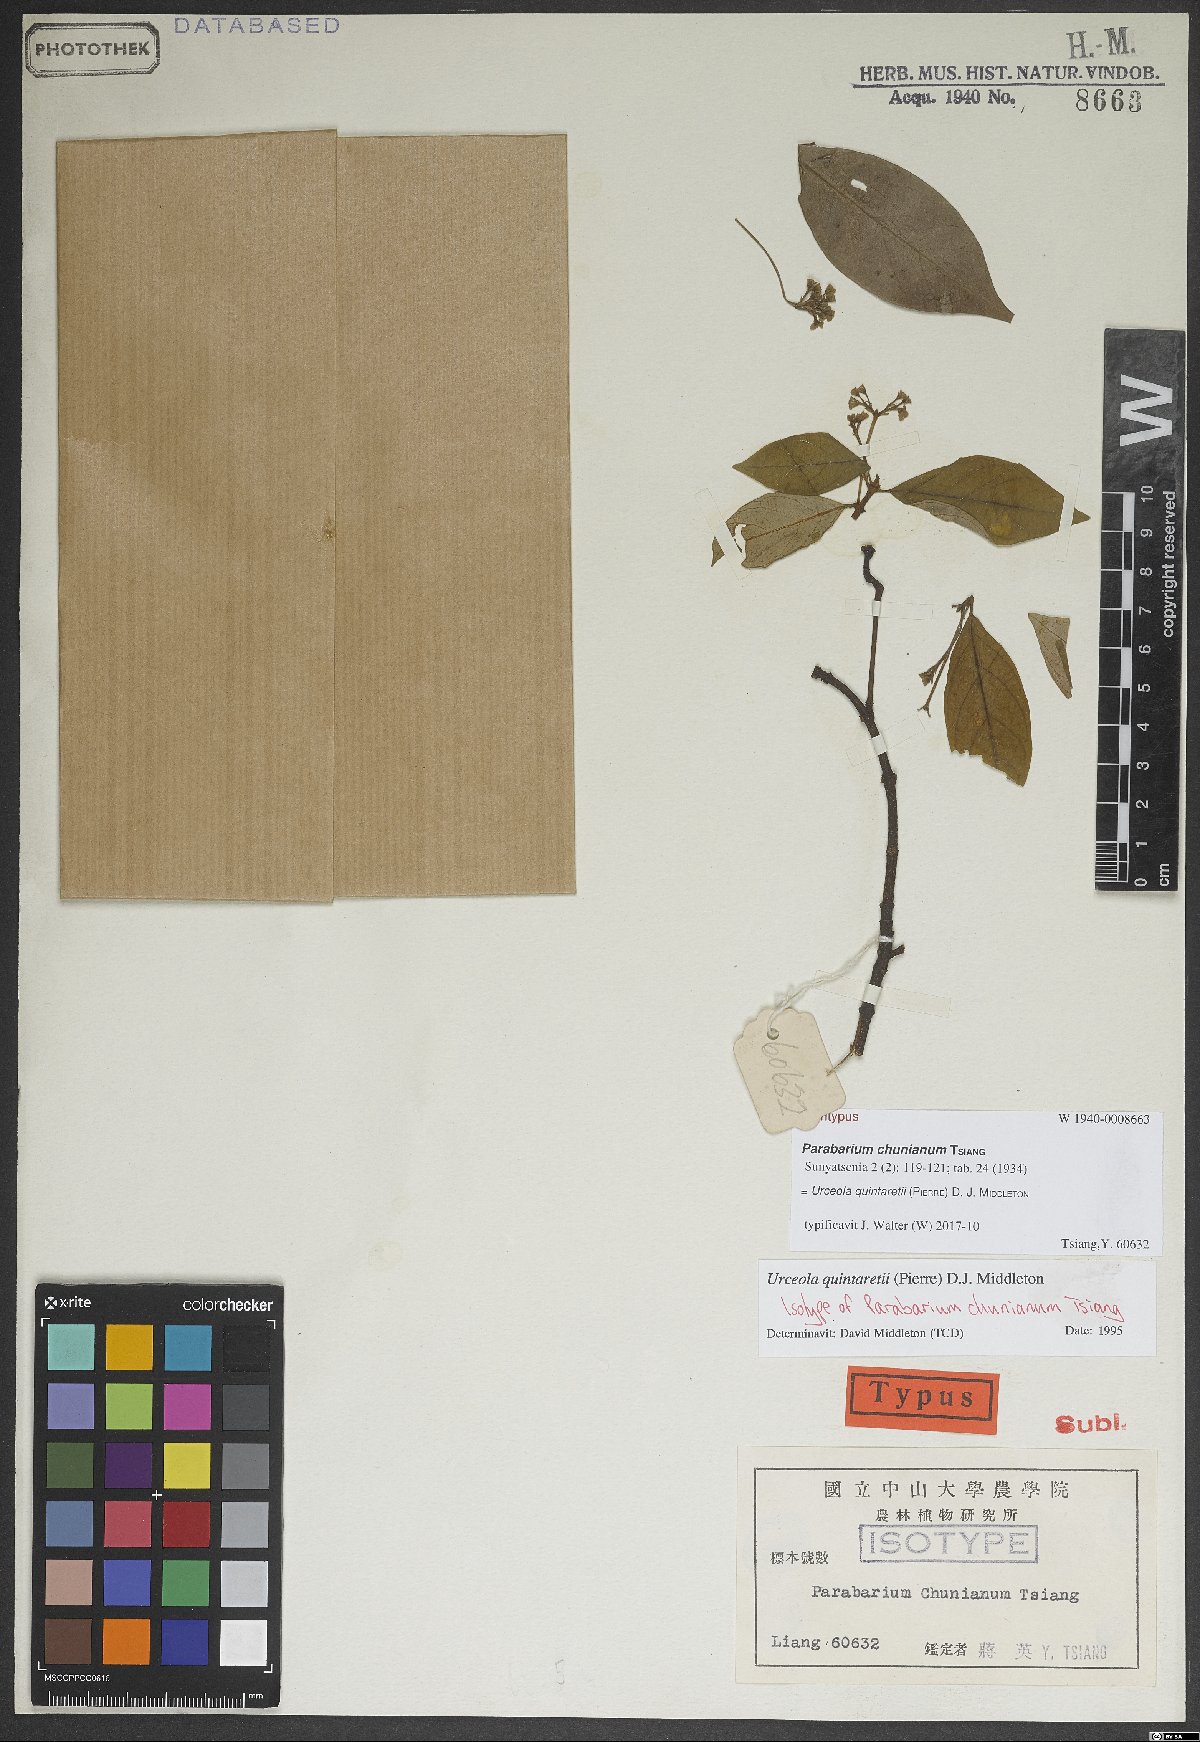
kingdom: Plantae
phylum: Tracheophyta
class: Magnoliopsida
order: Gentianales
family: Apocynaceae
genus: Urceola
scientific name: Urceola quintaretii
